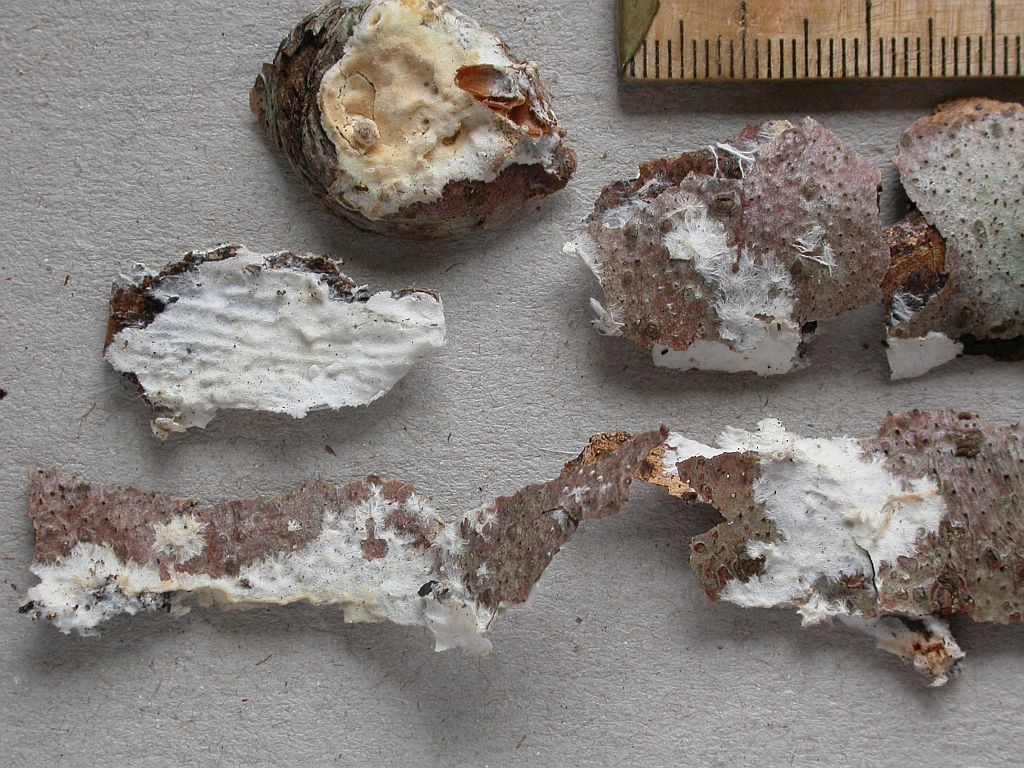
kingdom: Fungi
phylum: Basidiomycota
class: Agaricomycetes
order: Polyporales
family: Phanerochaetaceae
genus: Phanerochaete
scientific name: Phanerochaete velutina
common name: dunet randtråd
